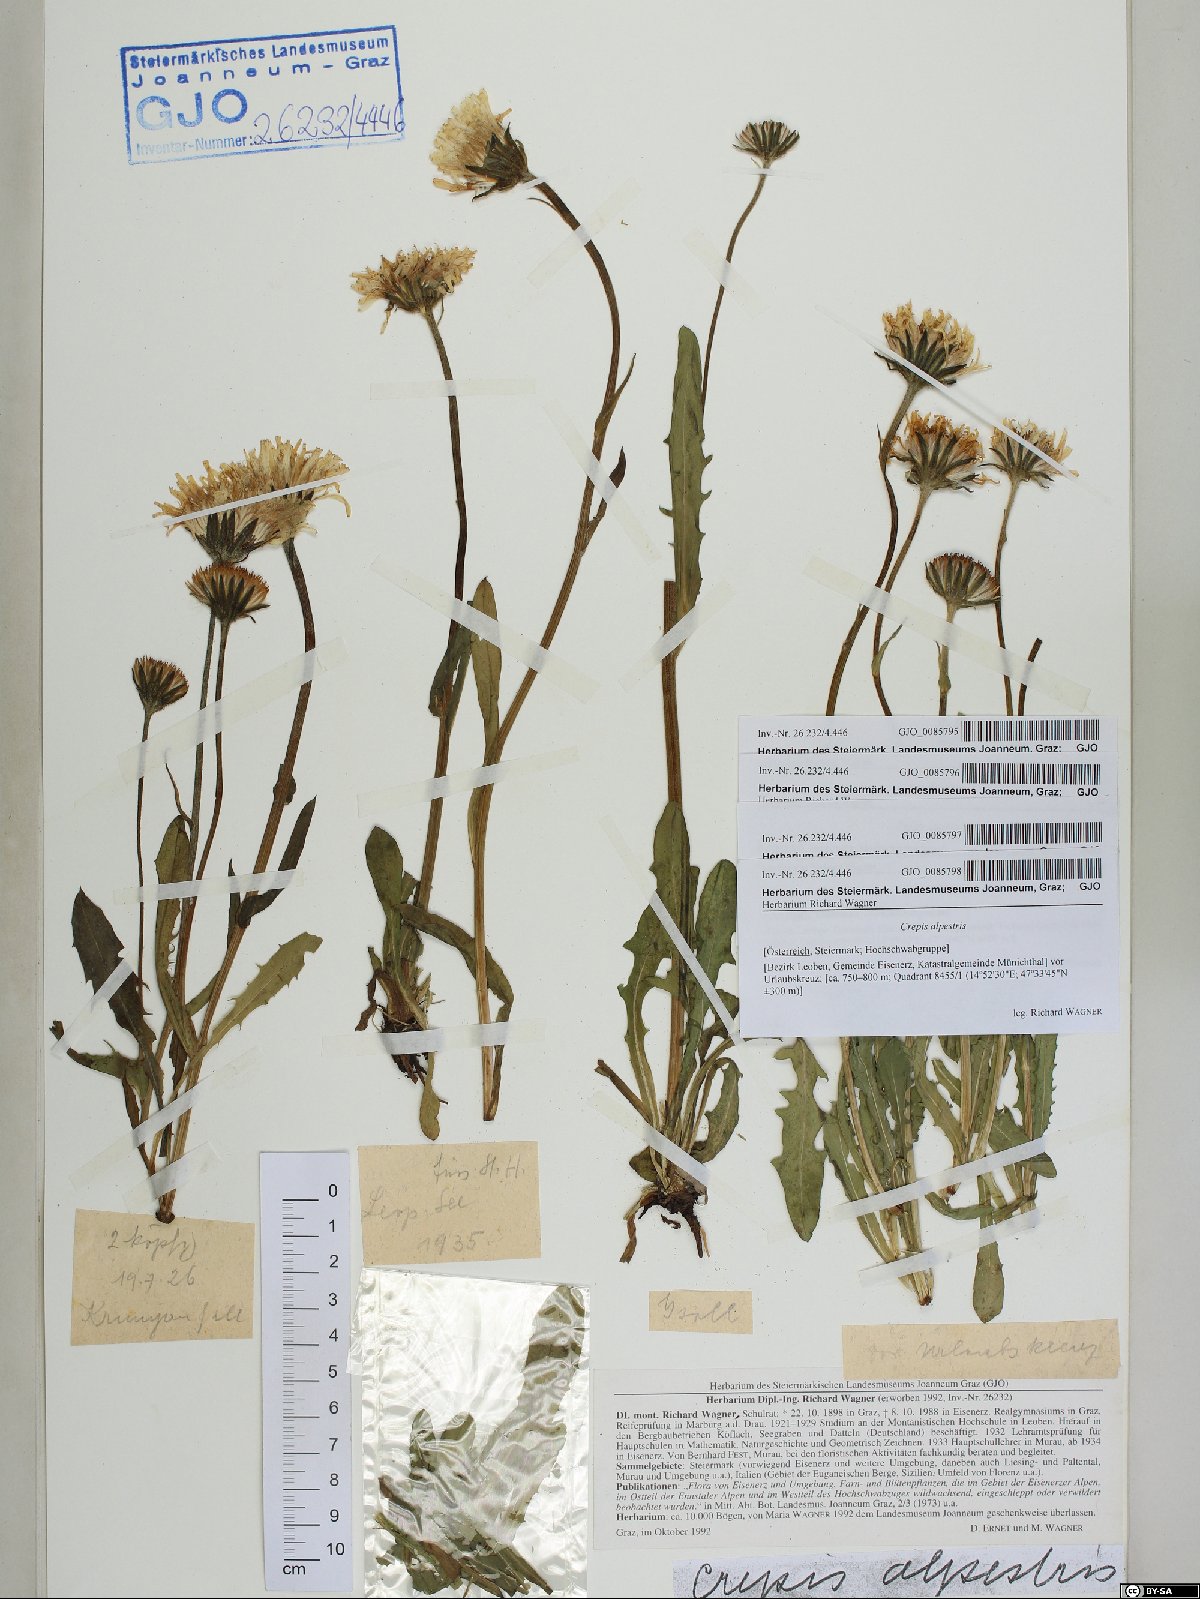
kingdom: Plantae
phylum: Tracheophyta
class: Magnoliopsida
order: Asterales
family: Asteraceae
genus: Crepis
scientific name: Crepis alpestris
